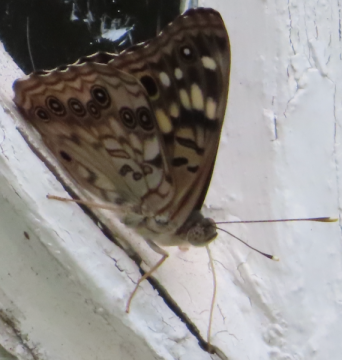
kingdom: Animalia
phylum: Arthropoda
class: Insecta
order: Lepidoptera
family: Nymphalidae
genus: Asterocampa
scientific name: Asterocampa celtis
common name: Hackberry Emperor
